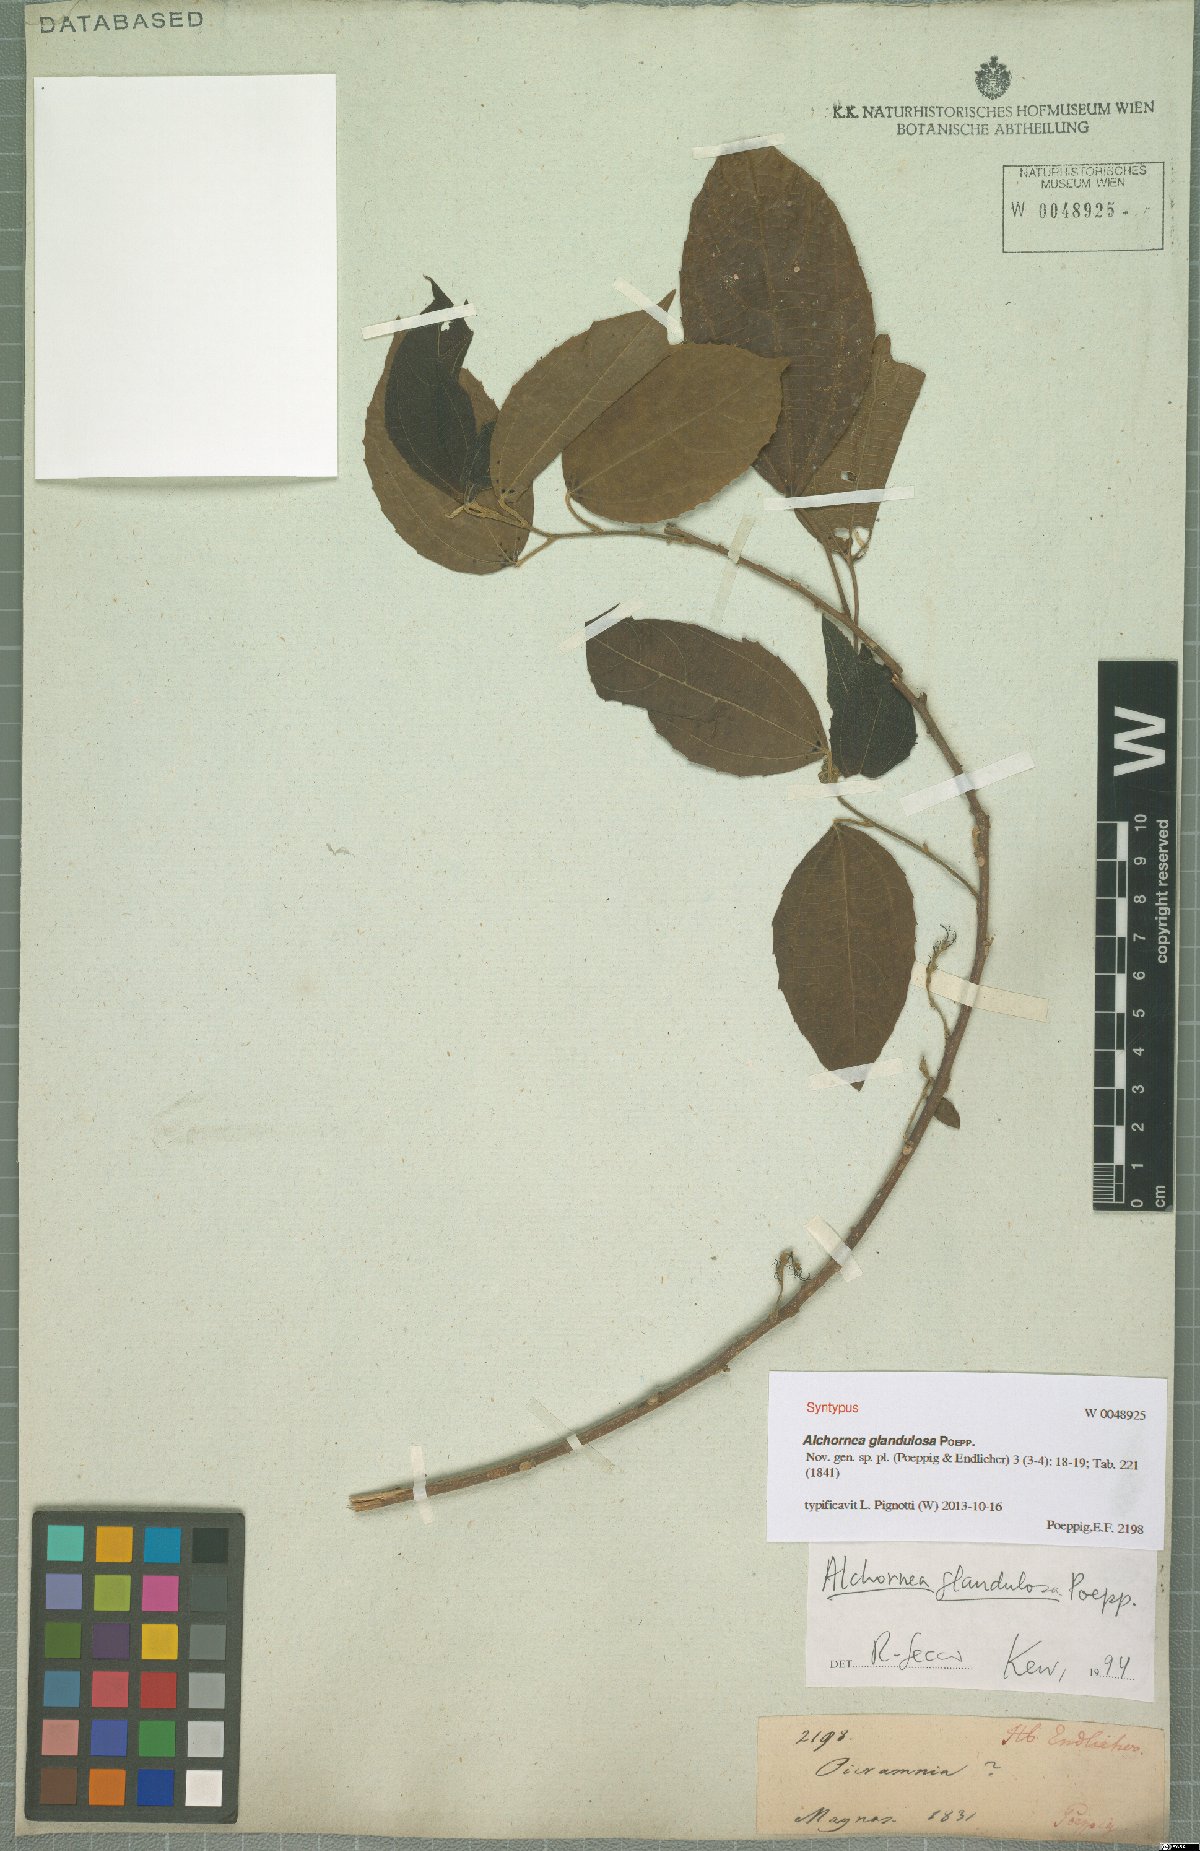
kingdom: Plantae
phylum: Tracheophyta
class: Magnoliopsida
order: Malpighiales
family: Euphorbiaceae
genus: Alchornea
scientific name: Alchornea glandulosa
